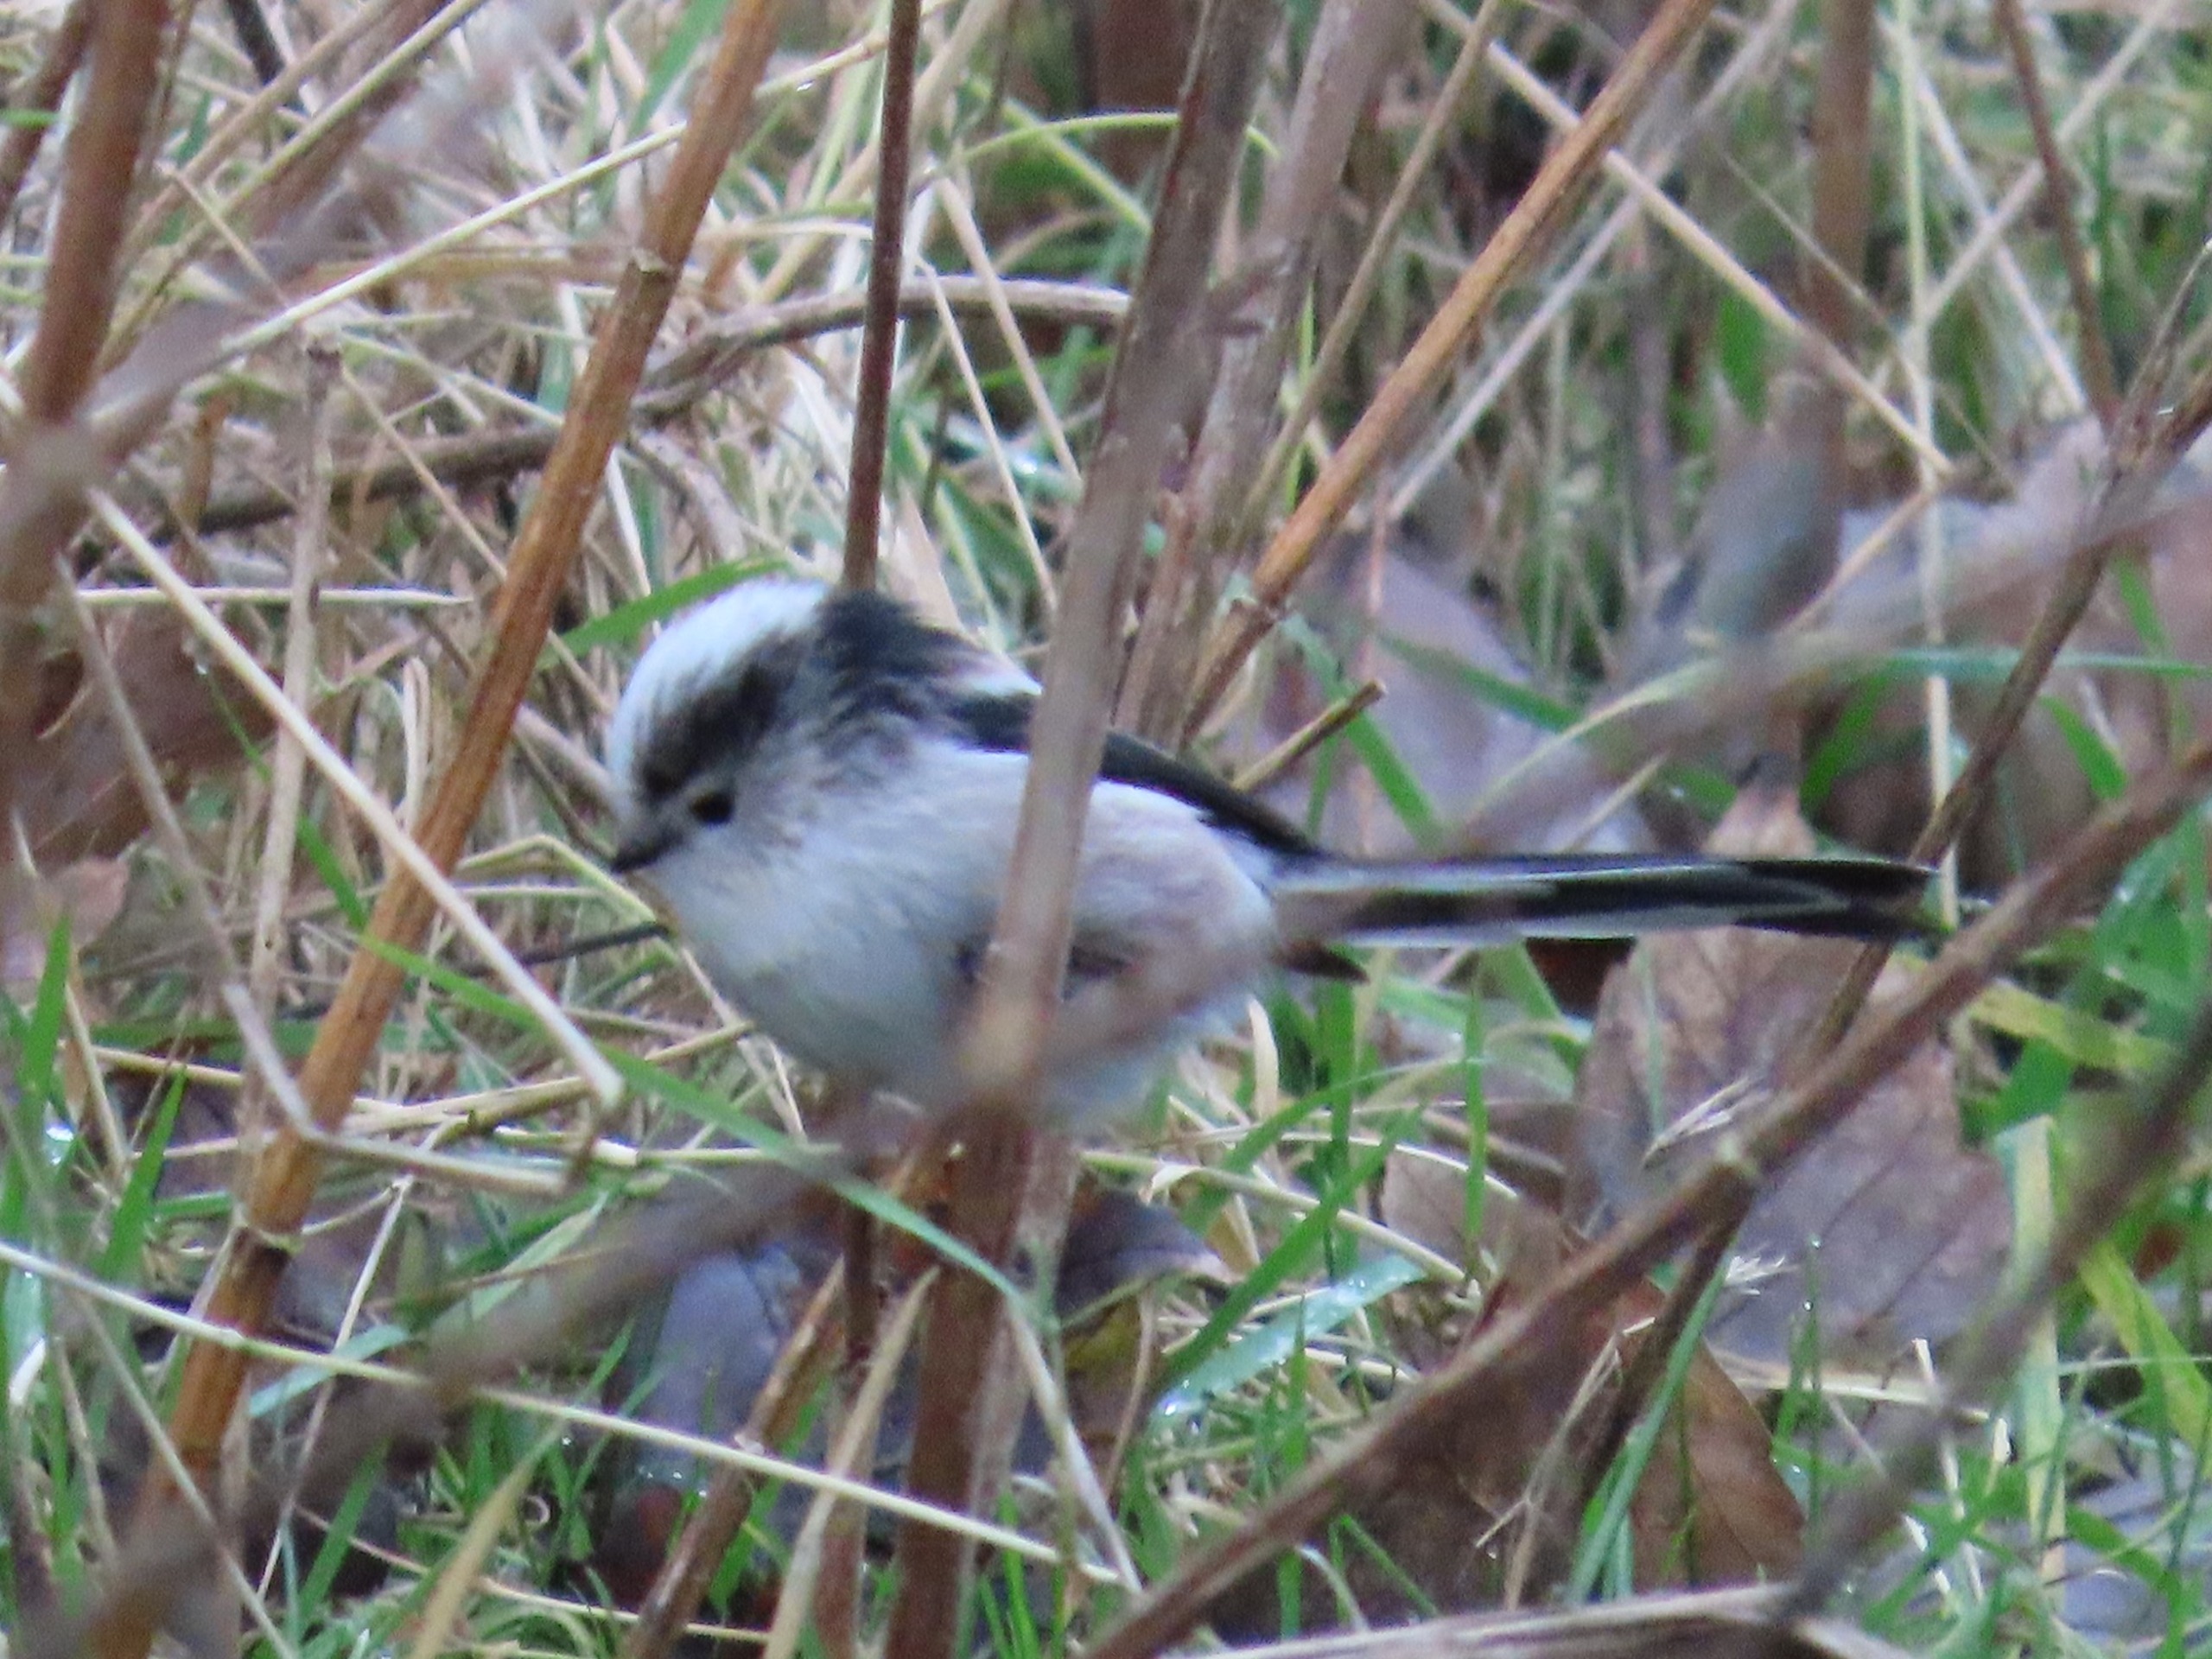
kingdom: Animalia
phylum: Chordata
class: Aves
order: Passeriformes
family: Aegithalidae
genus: Aegithalos
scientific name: Aegithalos caudatus
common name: Halemejse
